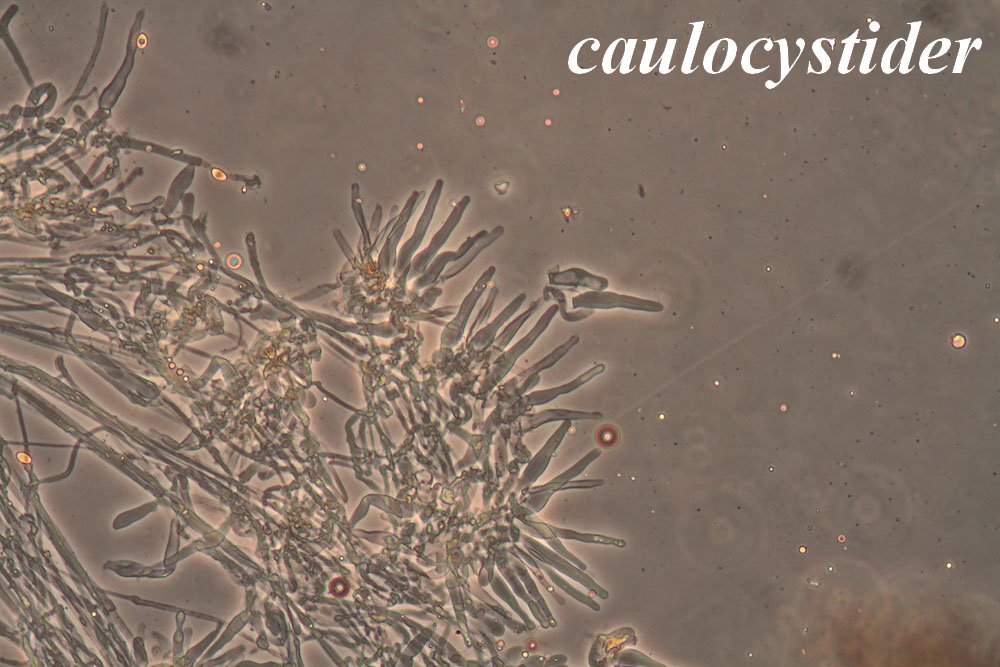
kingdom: Fungi
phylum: Basidiomycota
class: Agaricomycetes
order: Agaricales
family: Hymenogastraceae
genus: Galerina
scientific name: Galerina badipes
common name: brunstokket hjelmhat
